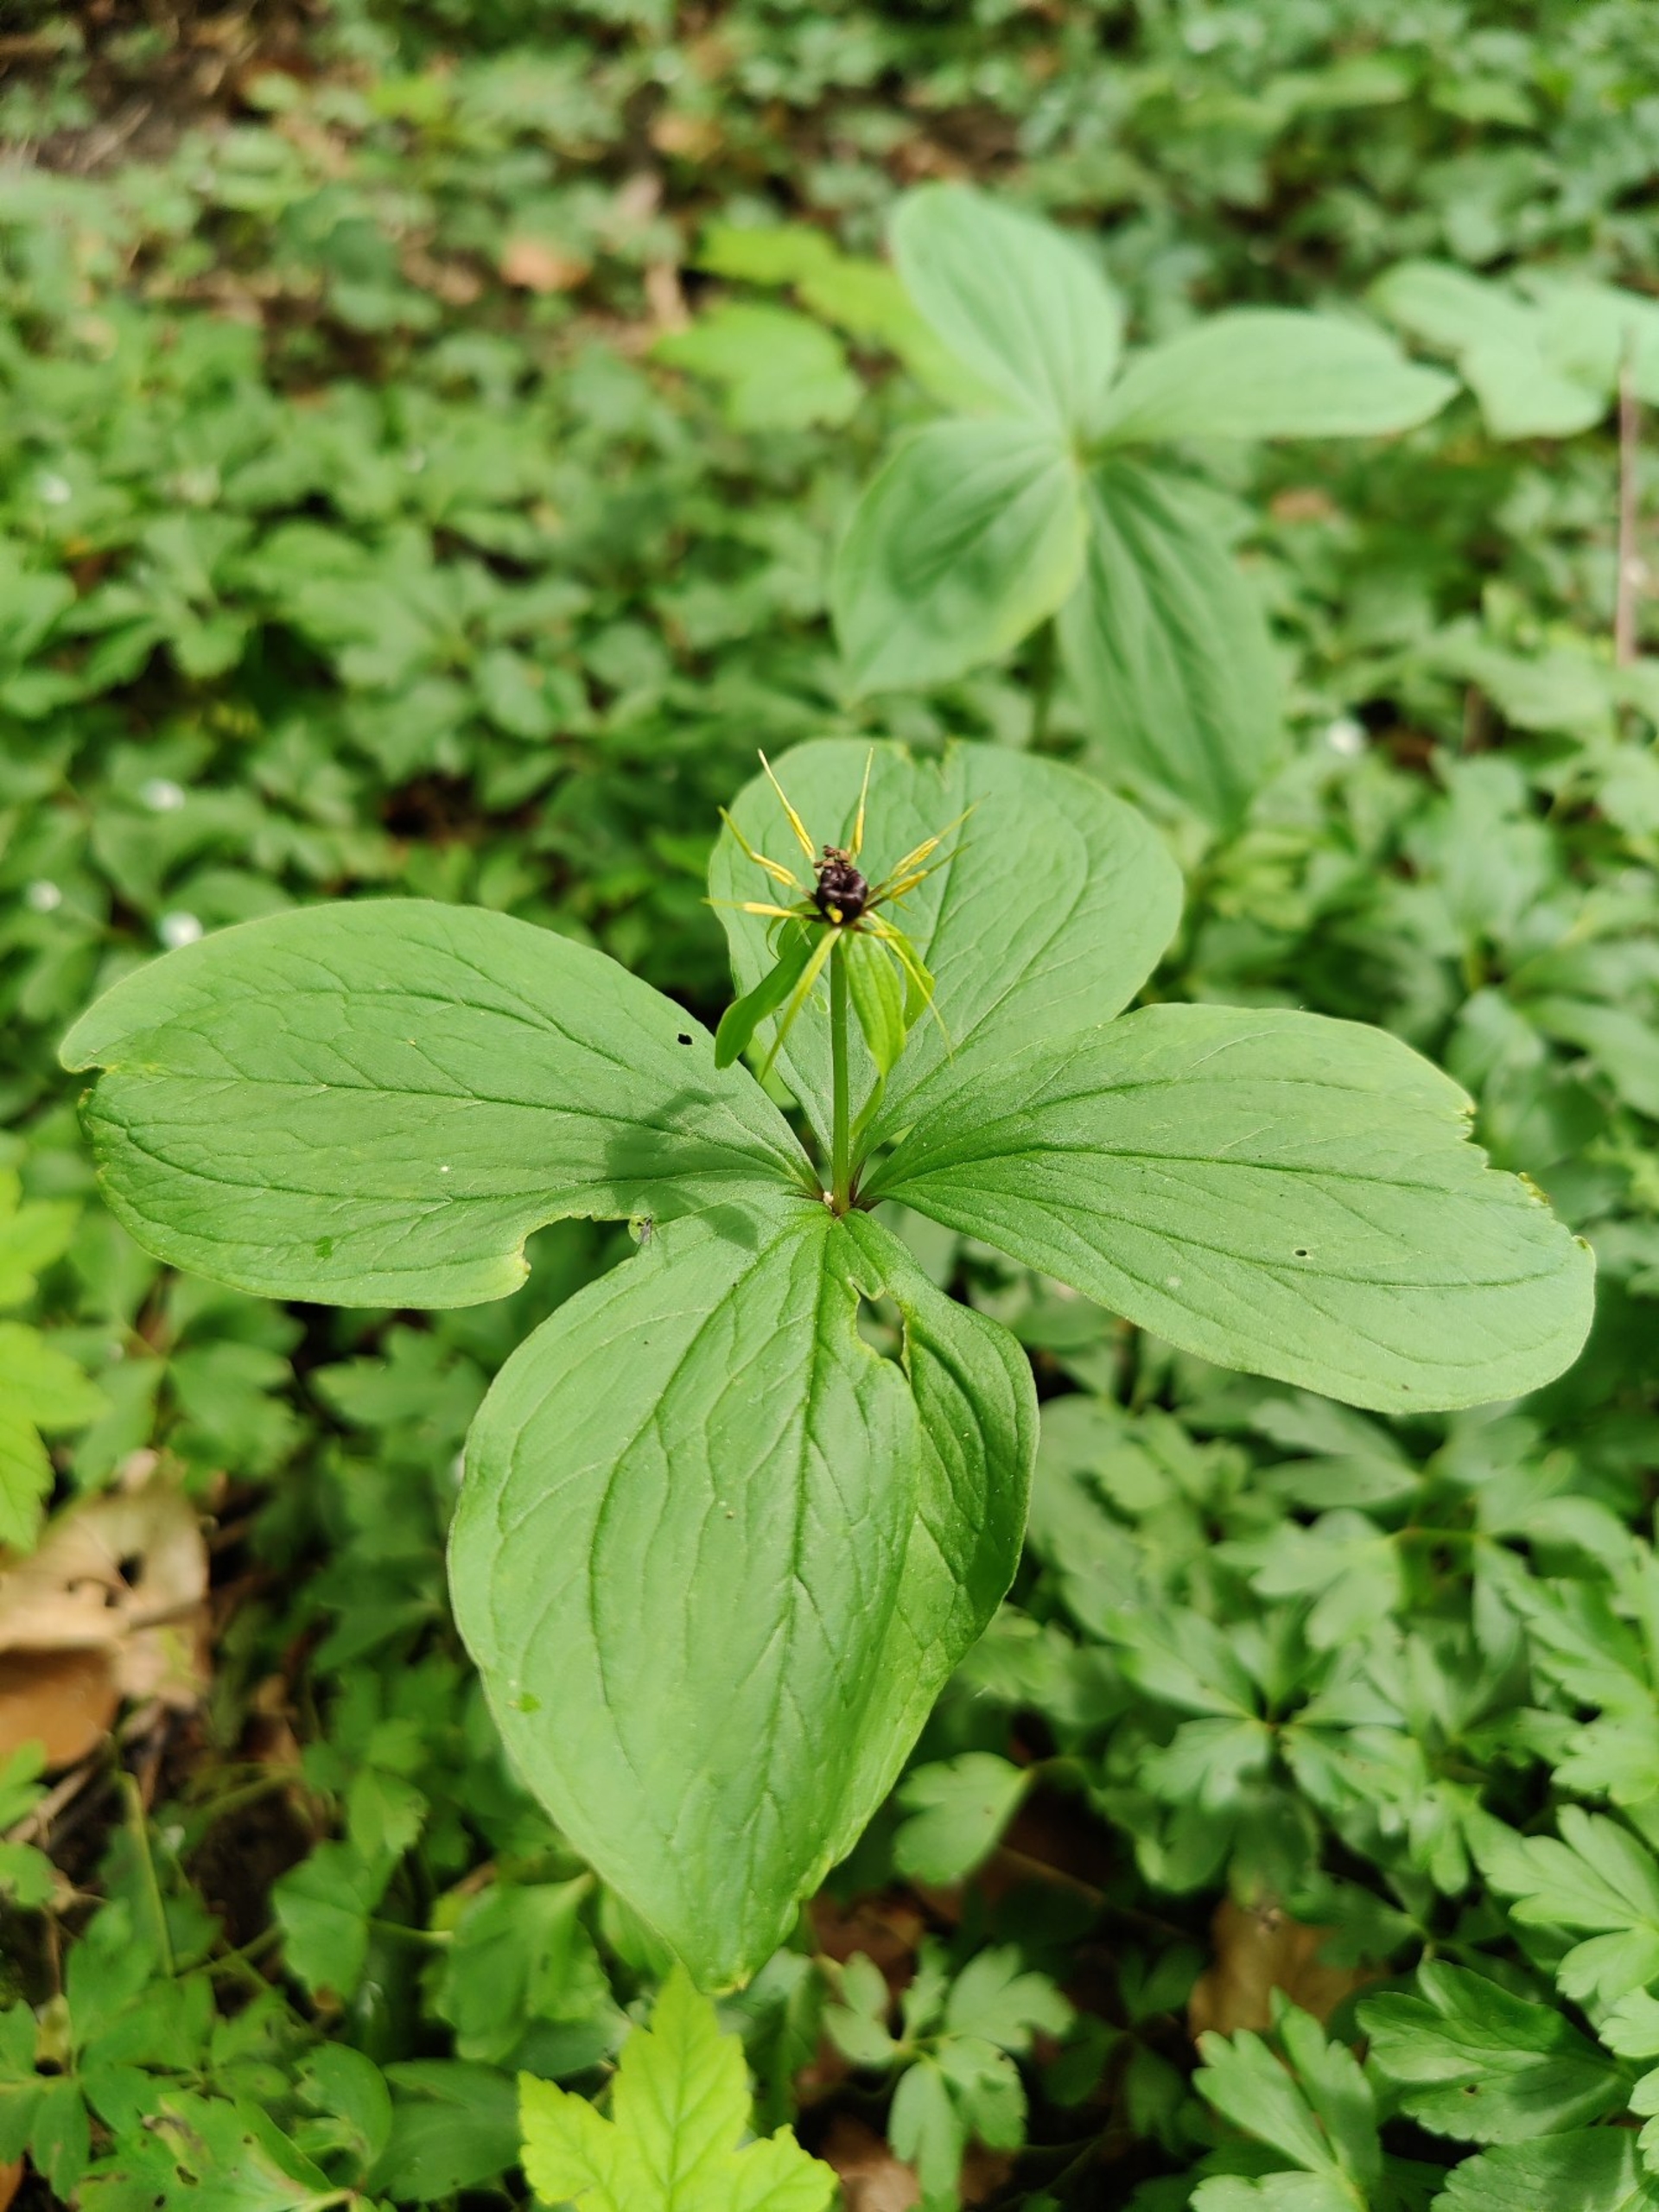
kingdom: Plantae
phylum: Tracheophyta
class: Liliopsida
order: Liliales
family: Melanthiaceae
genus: Paris
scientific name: Paris quadrifolia
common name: Firblad
